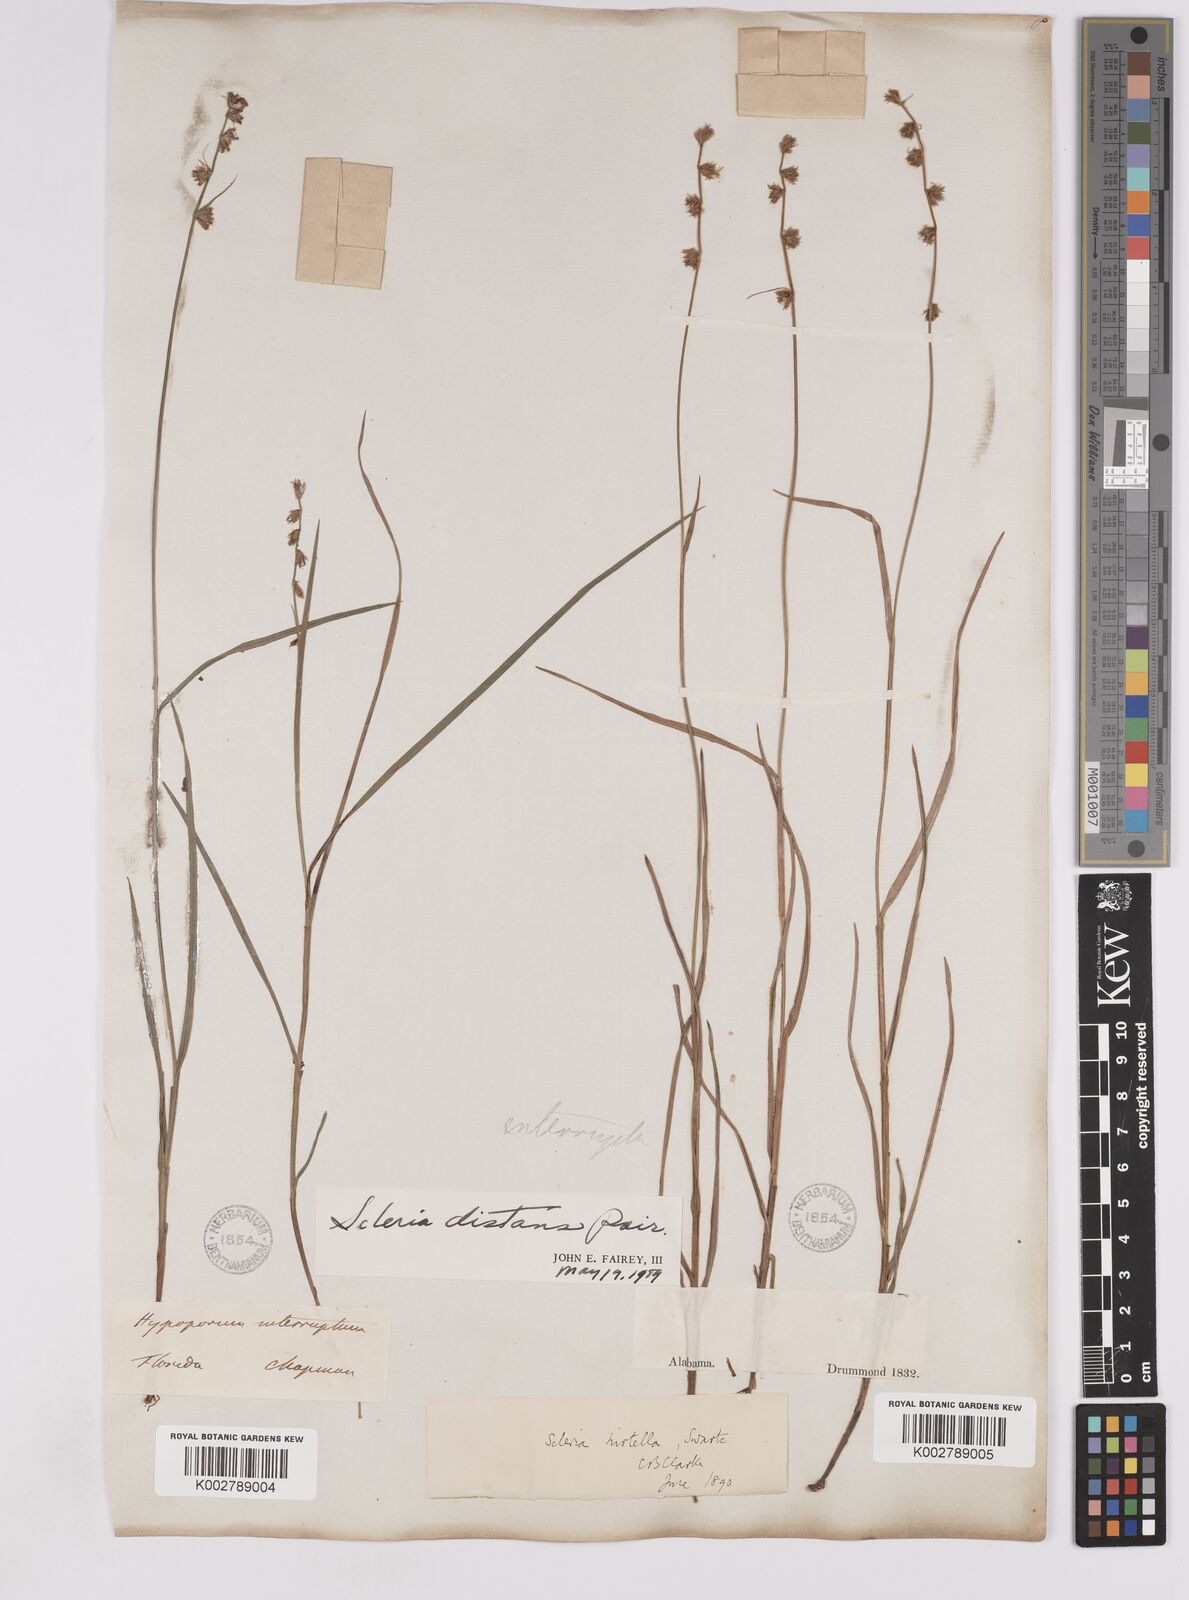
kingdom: Plantae
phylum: Tracheophyta
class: Liliopsida
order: Poales
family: Cyperaceae
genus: Scleria
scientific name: Scleria distans
